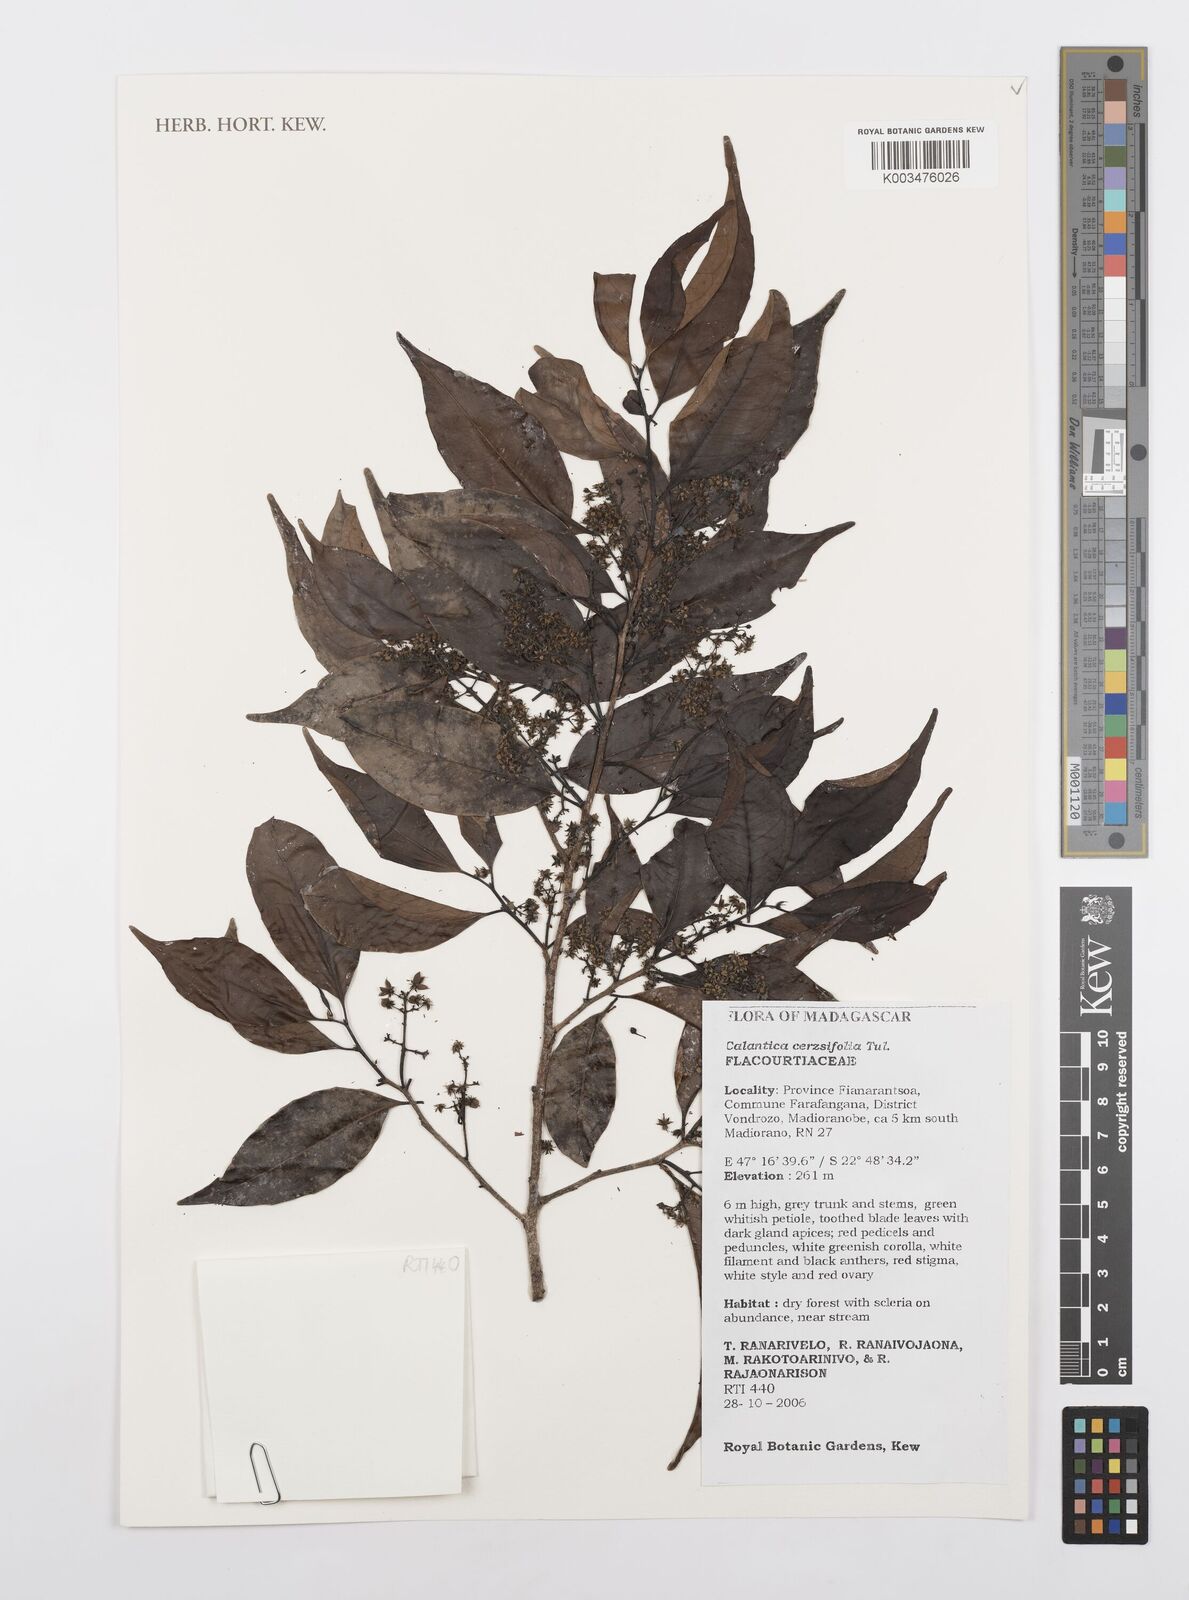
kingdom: Plantae
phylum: Tracheophyta
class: Magnoliopsida
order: Malpighiales
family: Salicaceae
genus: Calantica
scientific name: Calantica cerasifolia
